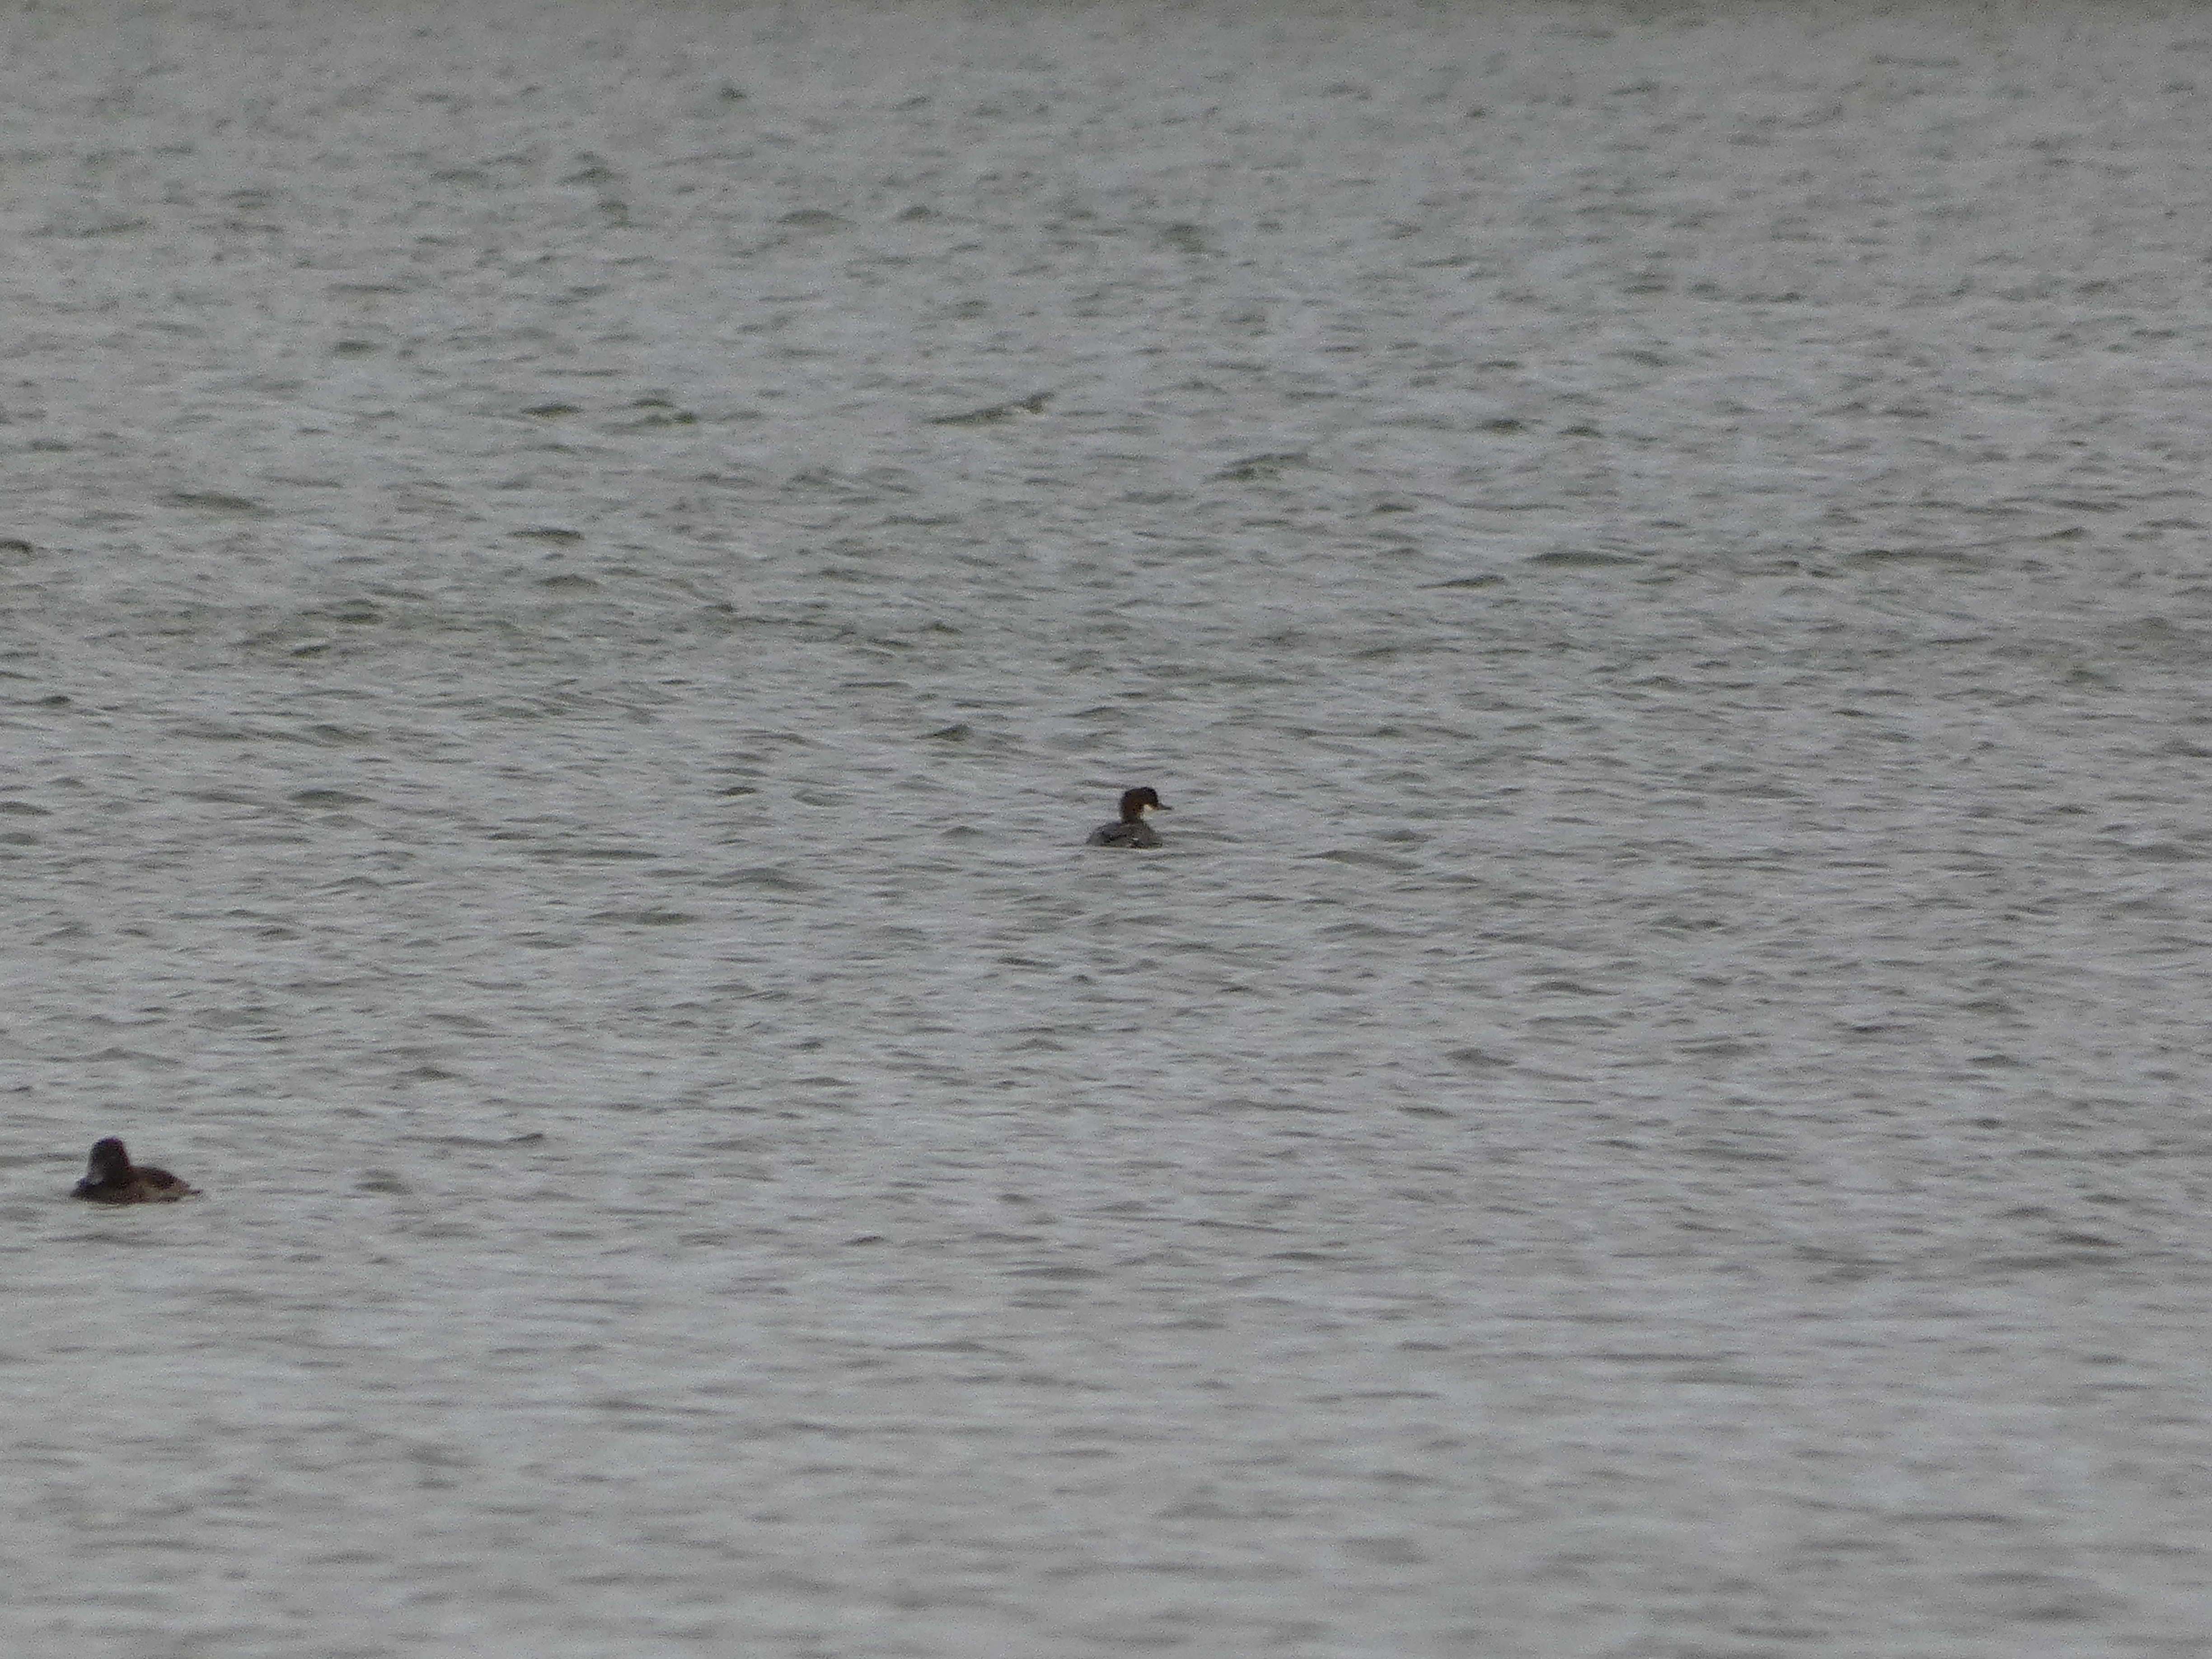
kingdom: Animalia
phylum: Chordata
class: Aves
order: Anseriformes
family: Anatidae
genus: Mergellus
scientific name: Mergellus albellus
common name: Lille skallesluger
